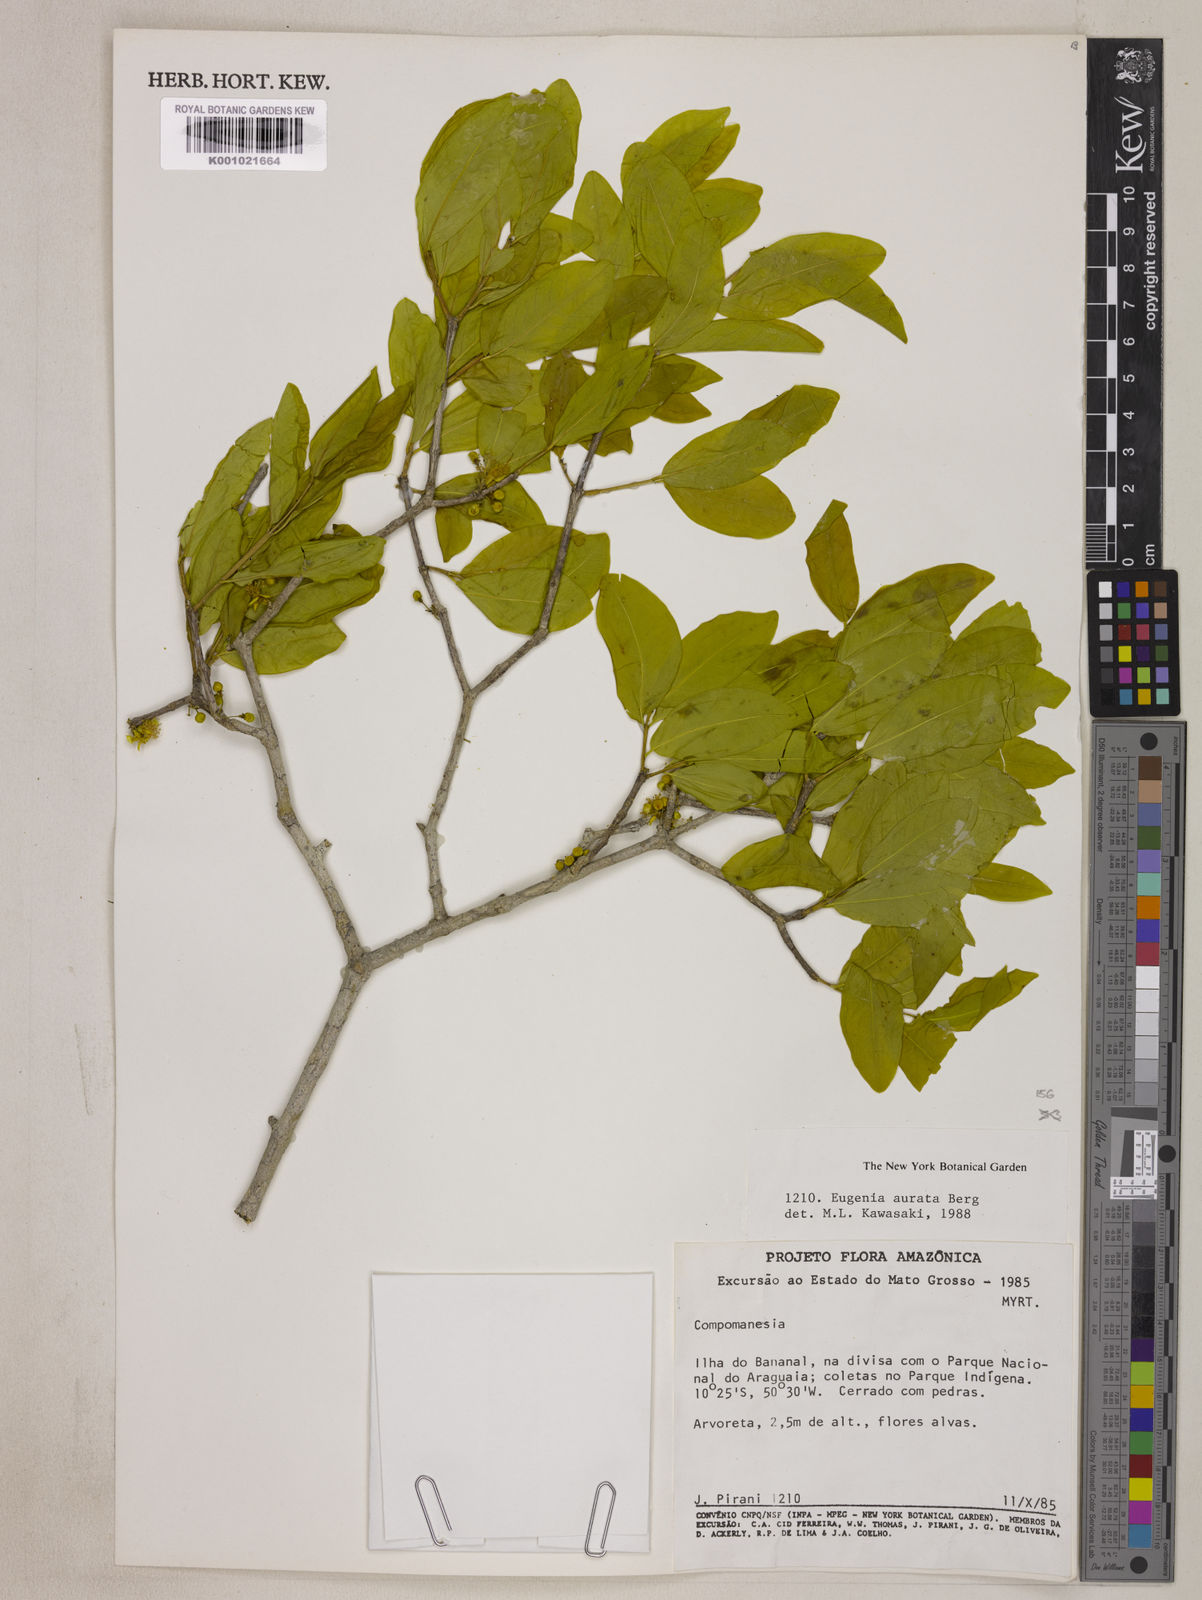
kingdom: Plantae
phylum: Tracheophyta
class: Magnoliopsida
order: Myrtales
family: Myrtaceae
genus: Eugenia
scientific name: Eugenia aurata
